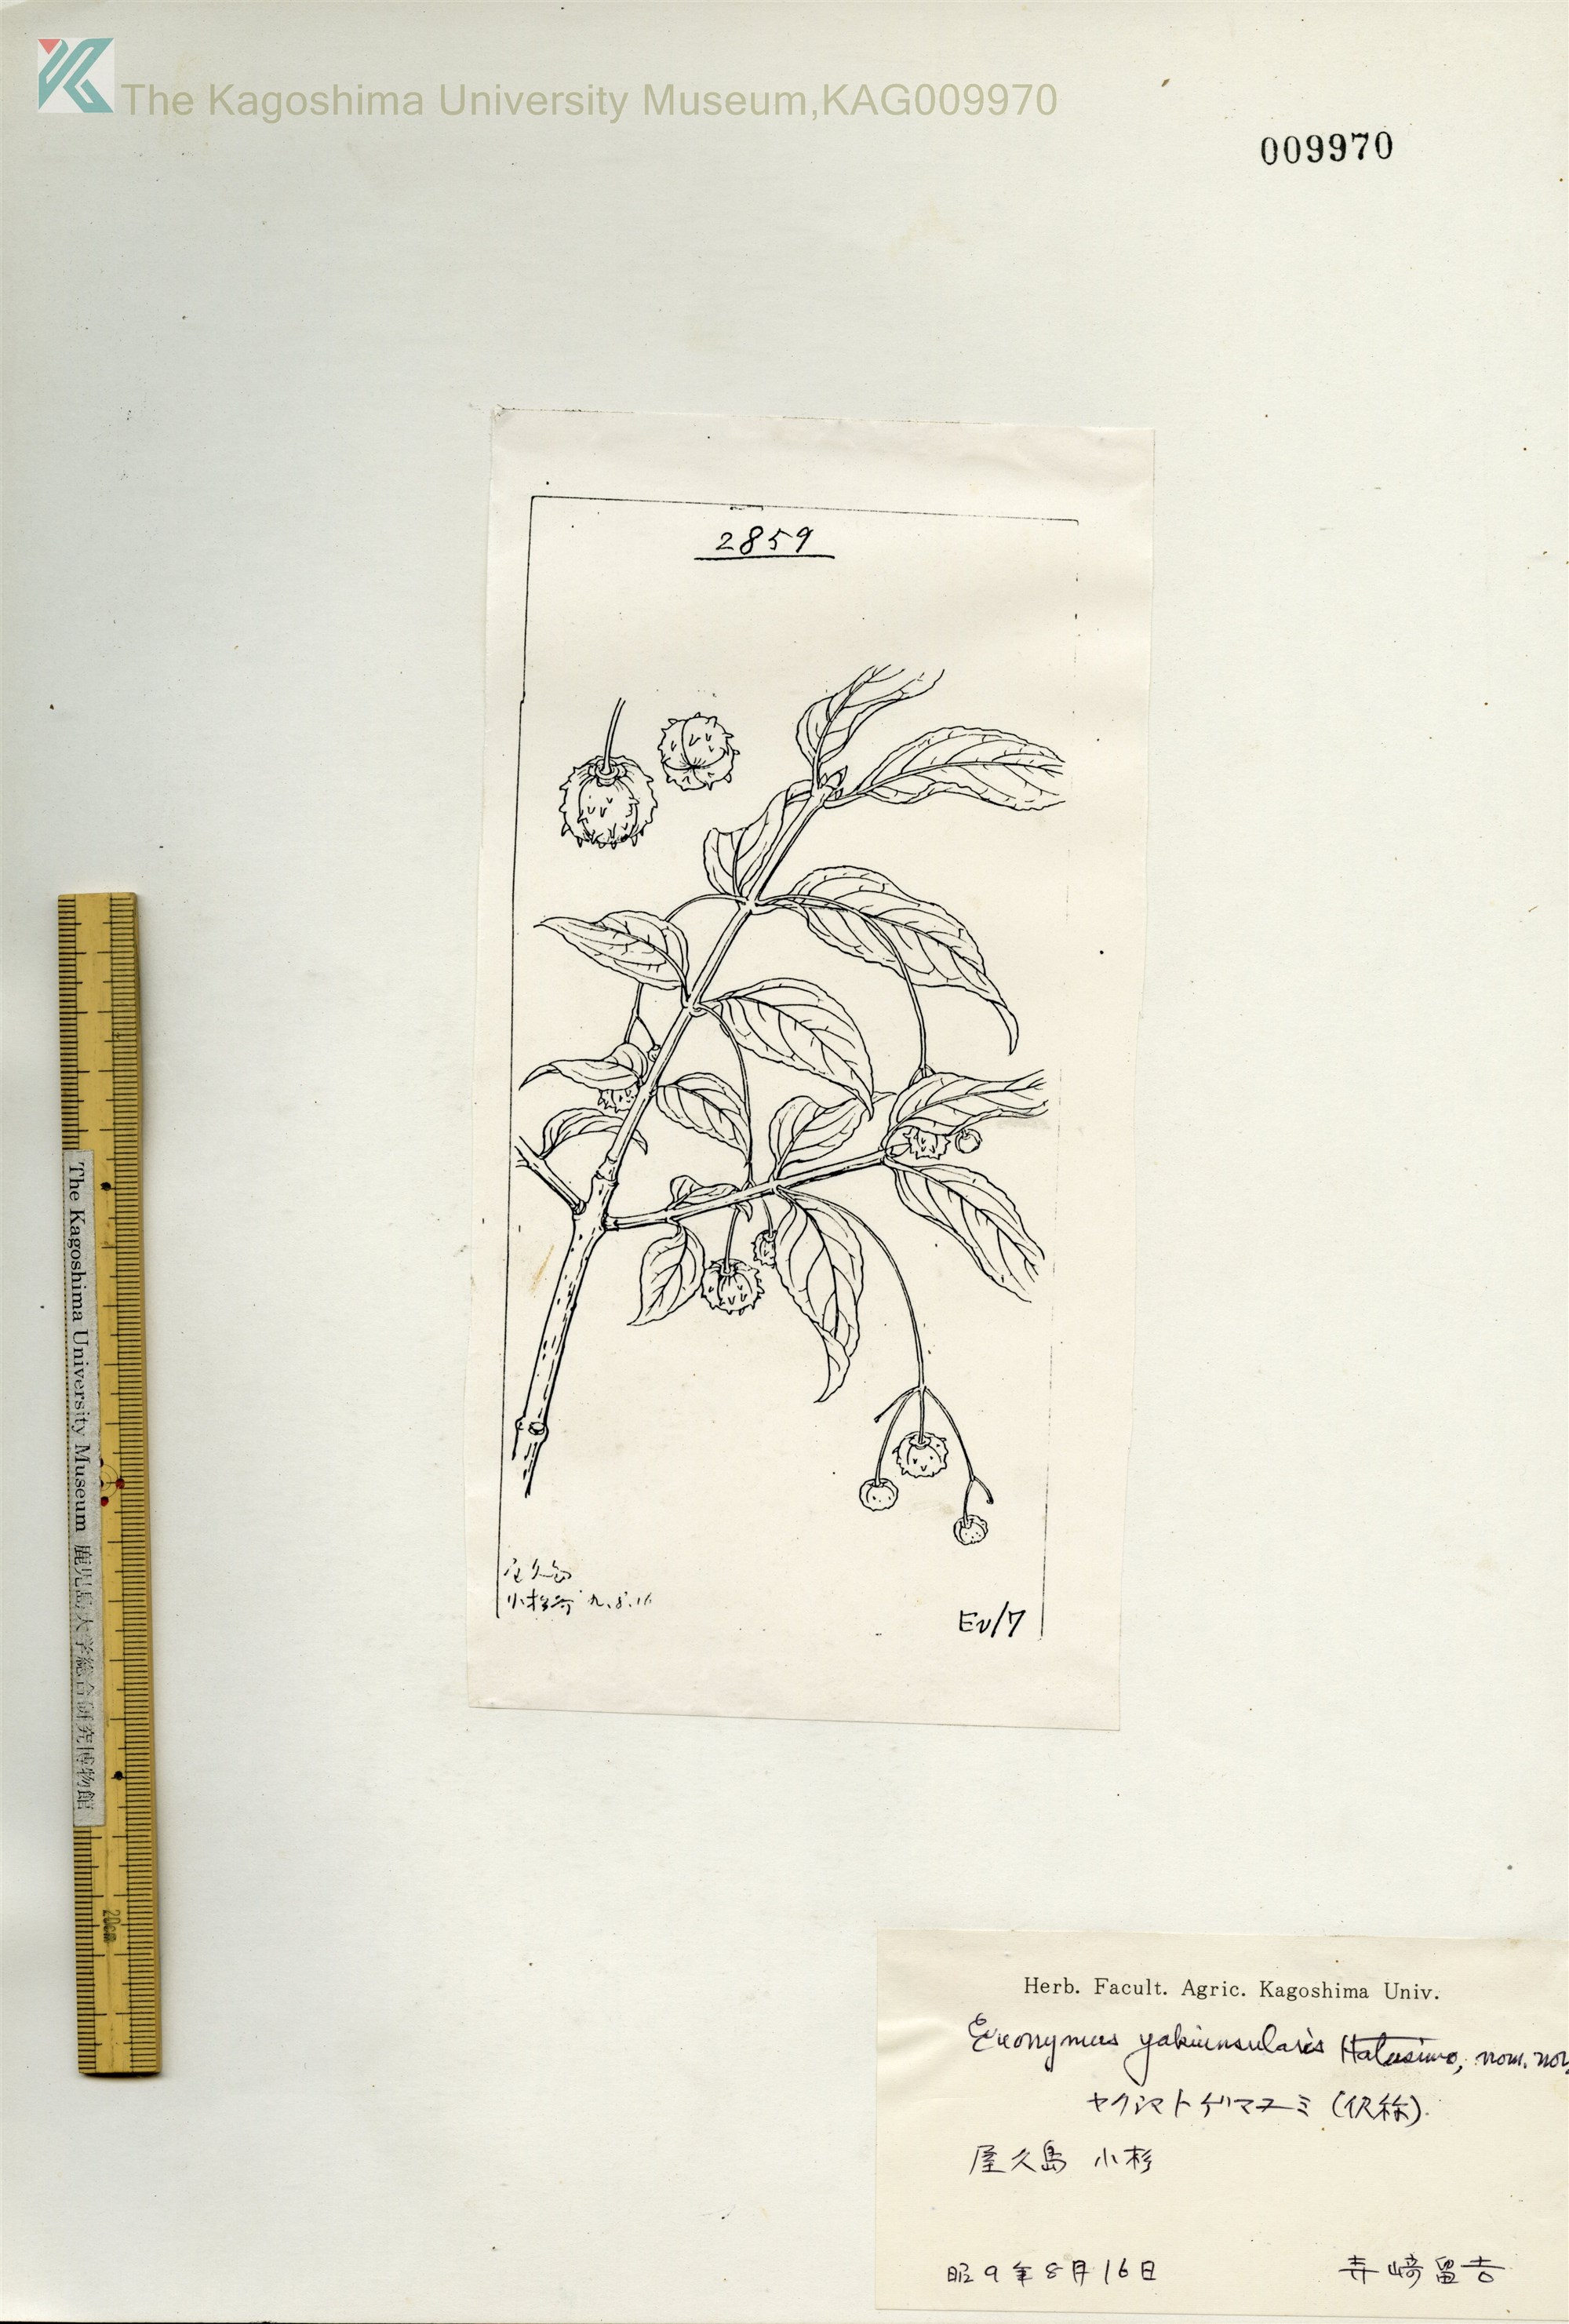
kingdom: Plantae
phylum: Tracheophyta
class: Magnoliopsida
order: Celastrales
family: Celastraceae
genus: Euonymus
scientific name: Euonymus
